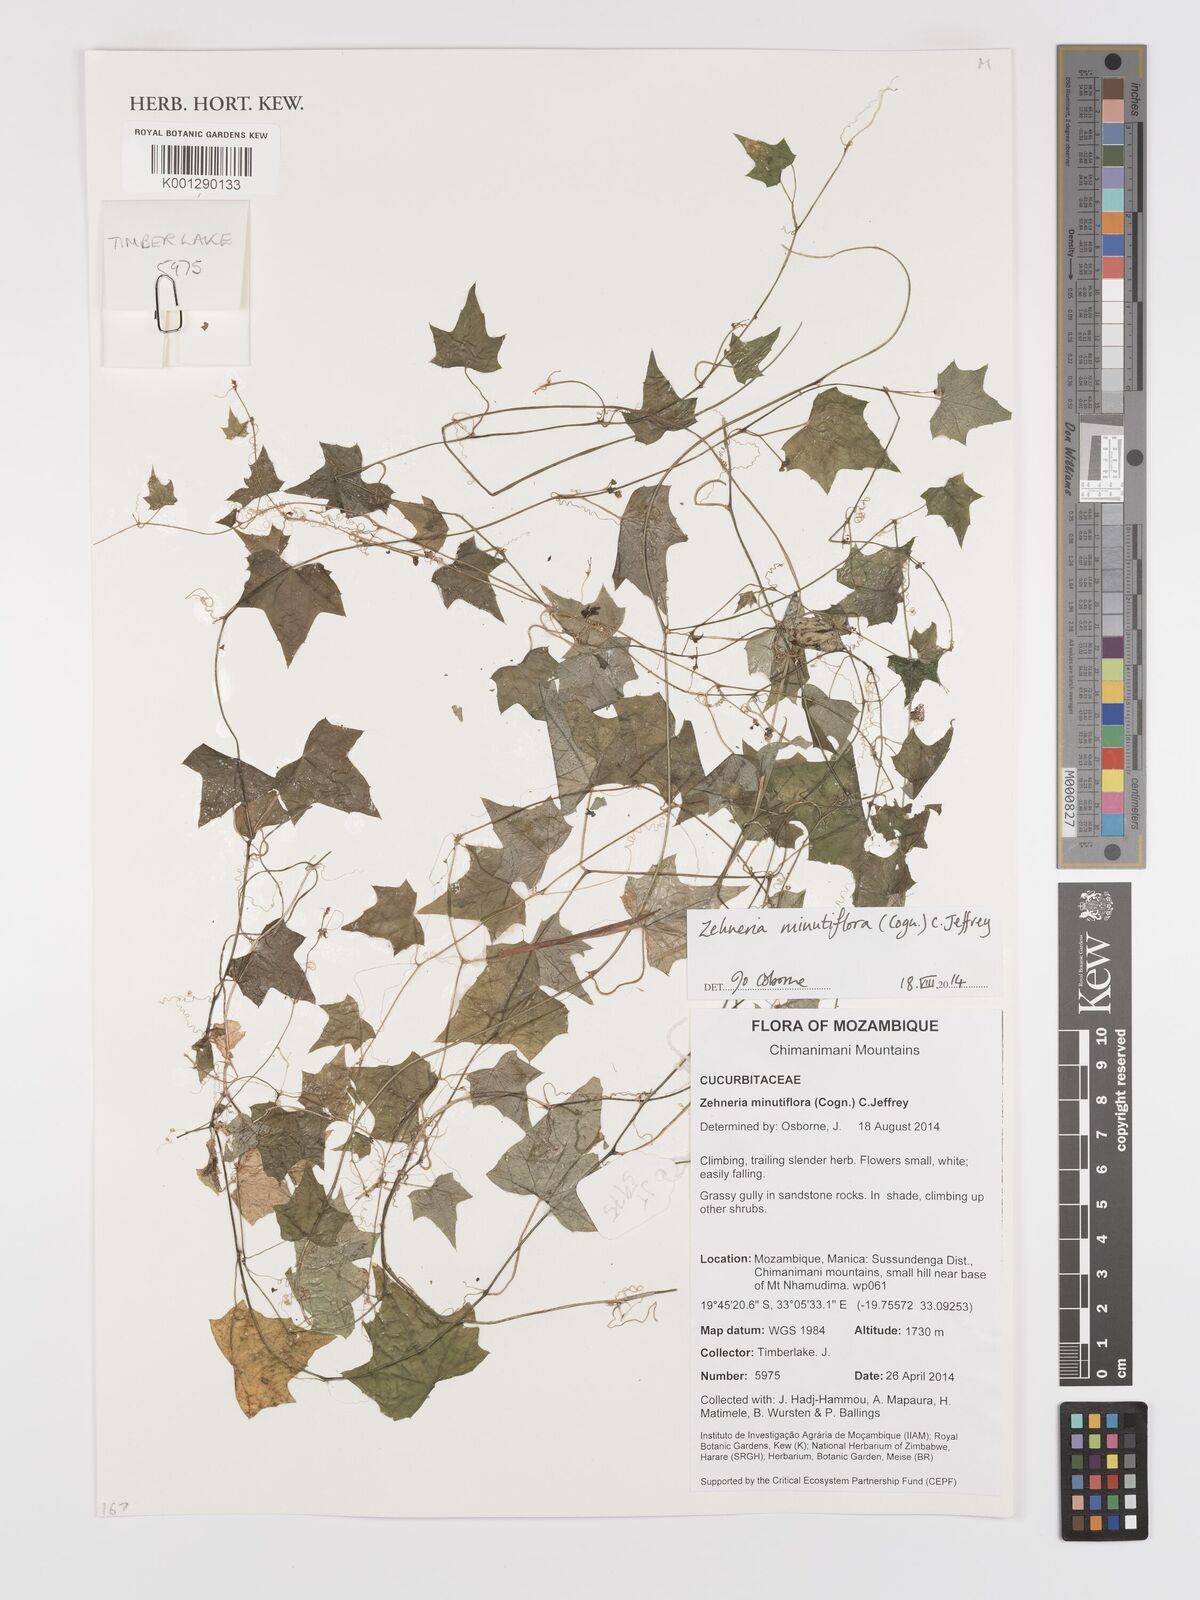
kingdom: Plantae
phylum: Tracheophyta
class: Magnoliopsida
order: Cucurbitales
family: Cucurbitaceae
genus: Zehneria
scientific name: Zehneria minutiflora
